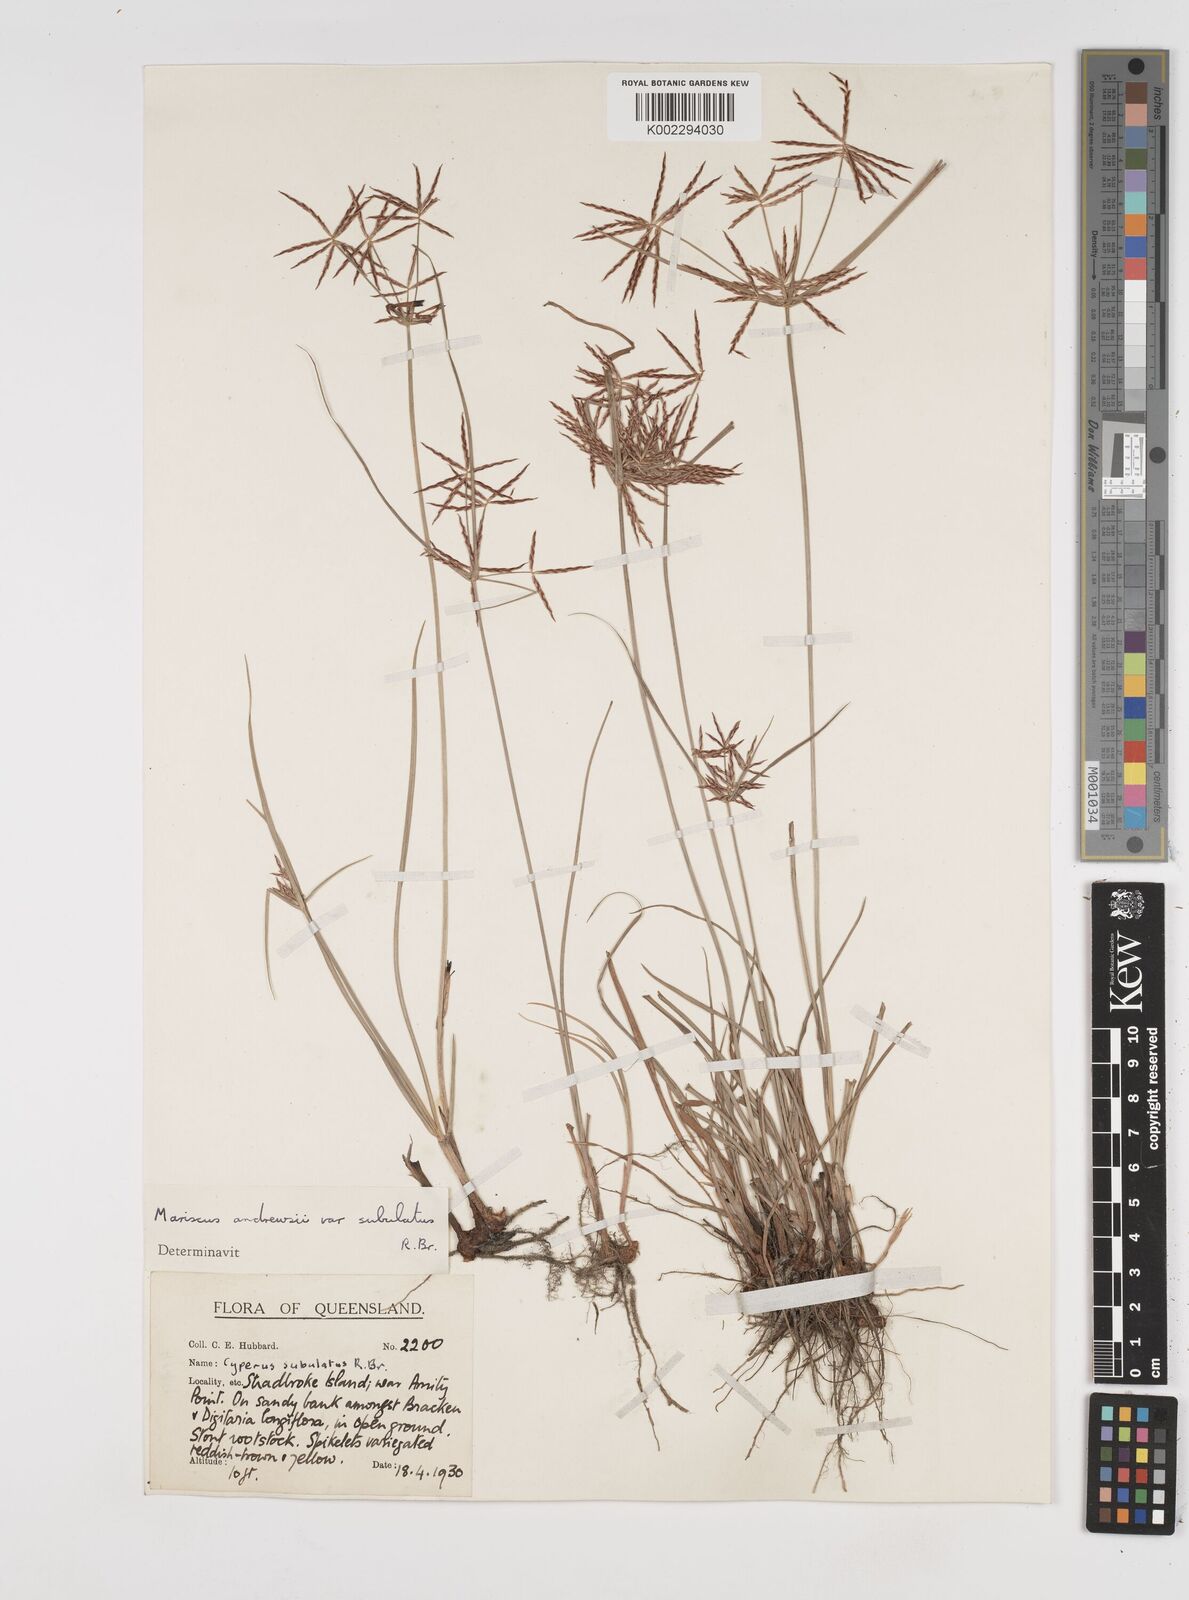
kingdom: Plantae
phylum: Tracheophyta
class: Liliopsida
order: Poales
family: Cyperaceae
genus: Cyperus
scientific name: Cyperus subulatus
